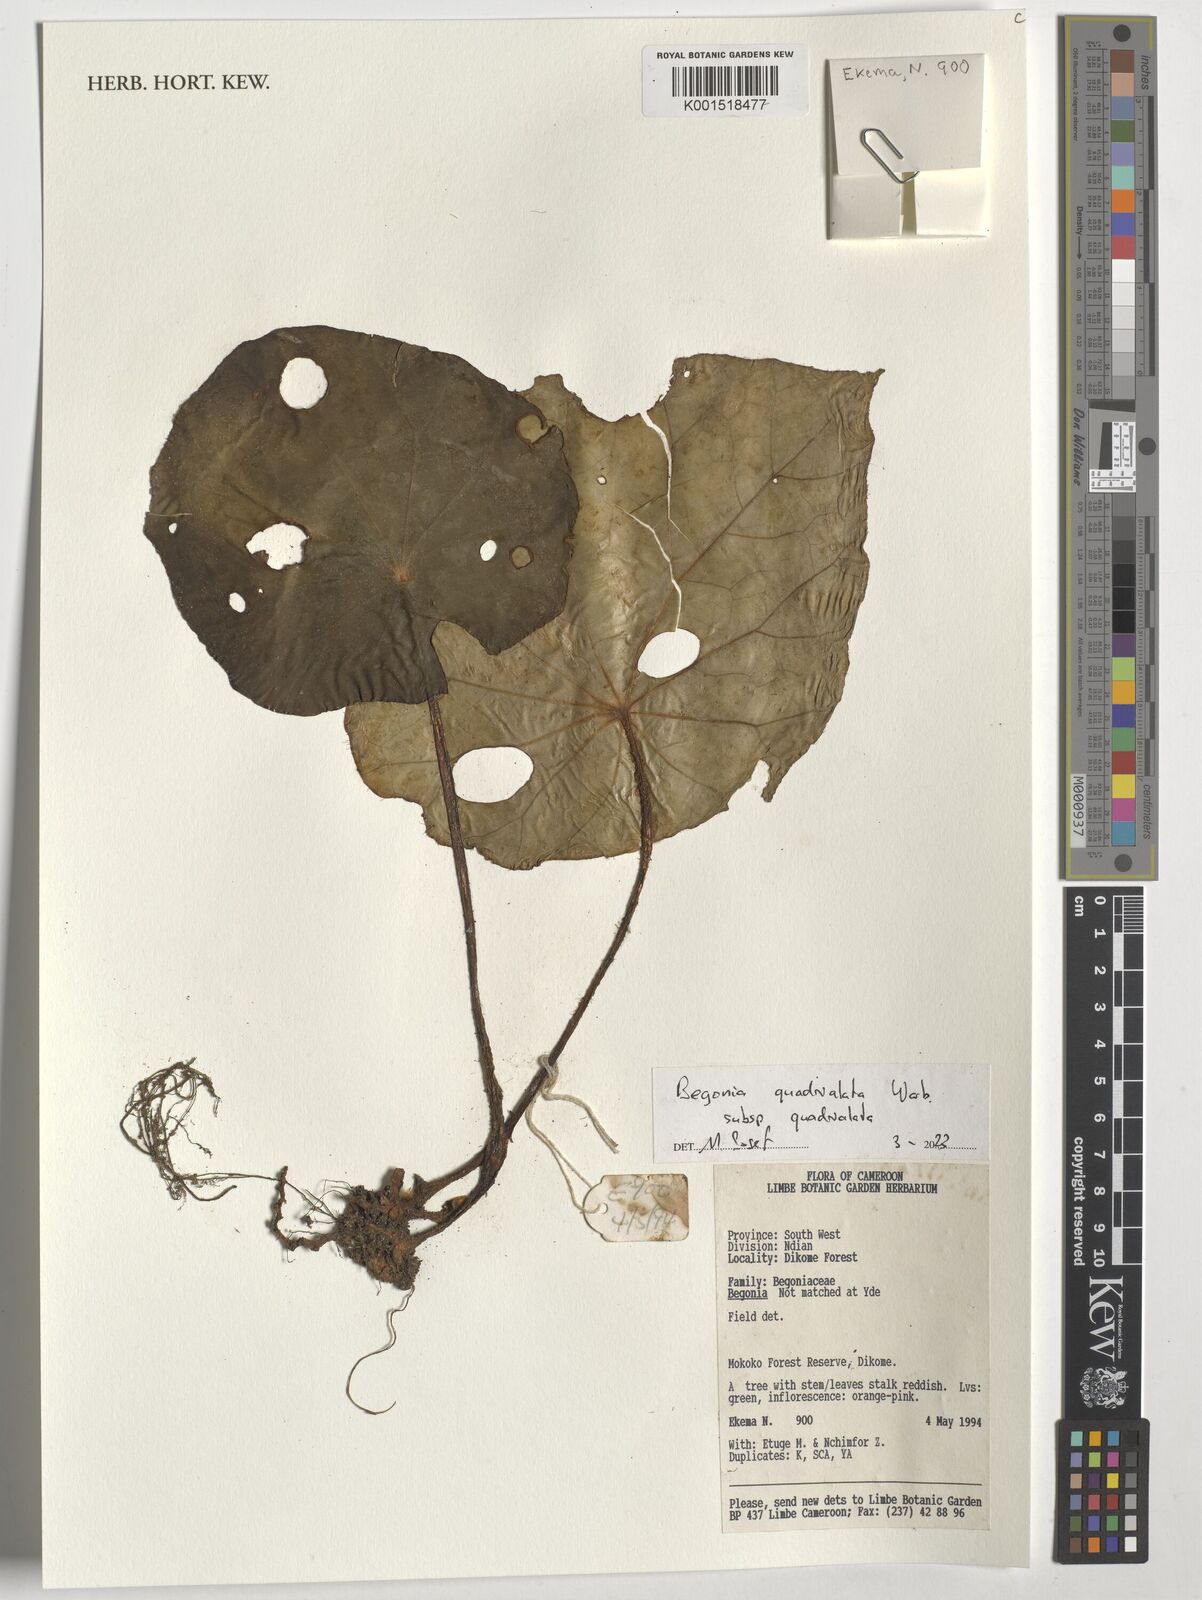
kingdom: Plantae
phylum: Tracheophyta
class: Magnoliopsida
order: Cucurbitales
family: Begoniaceae
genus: Begonia
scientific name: Begonia quadrialata
